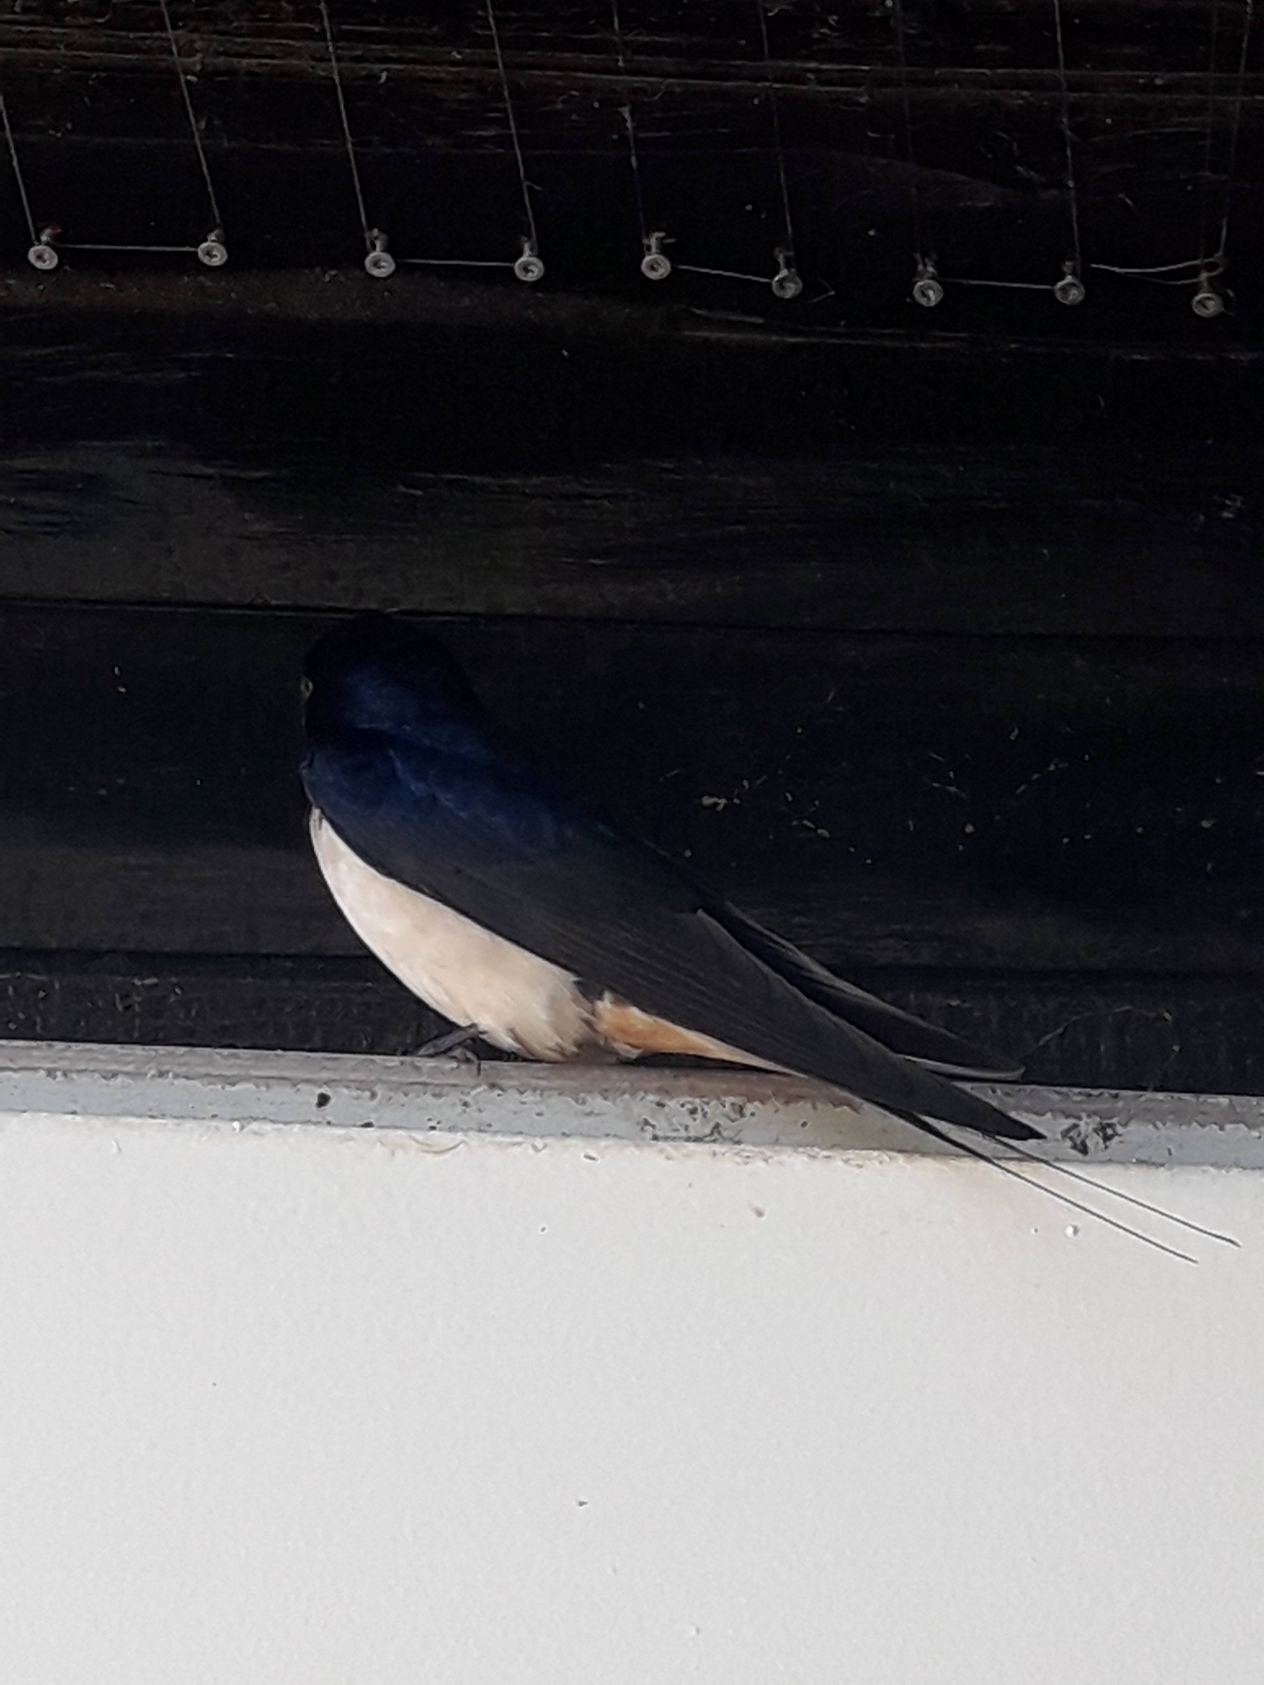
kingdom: Animalia
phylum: Chordata
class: Aves
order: Passeriformes
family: Hirundinidae
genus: Hirundo
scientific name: Hirundo rustica
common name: Landsvale
